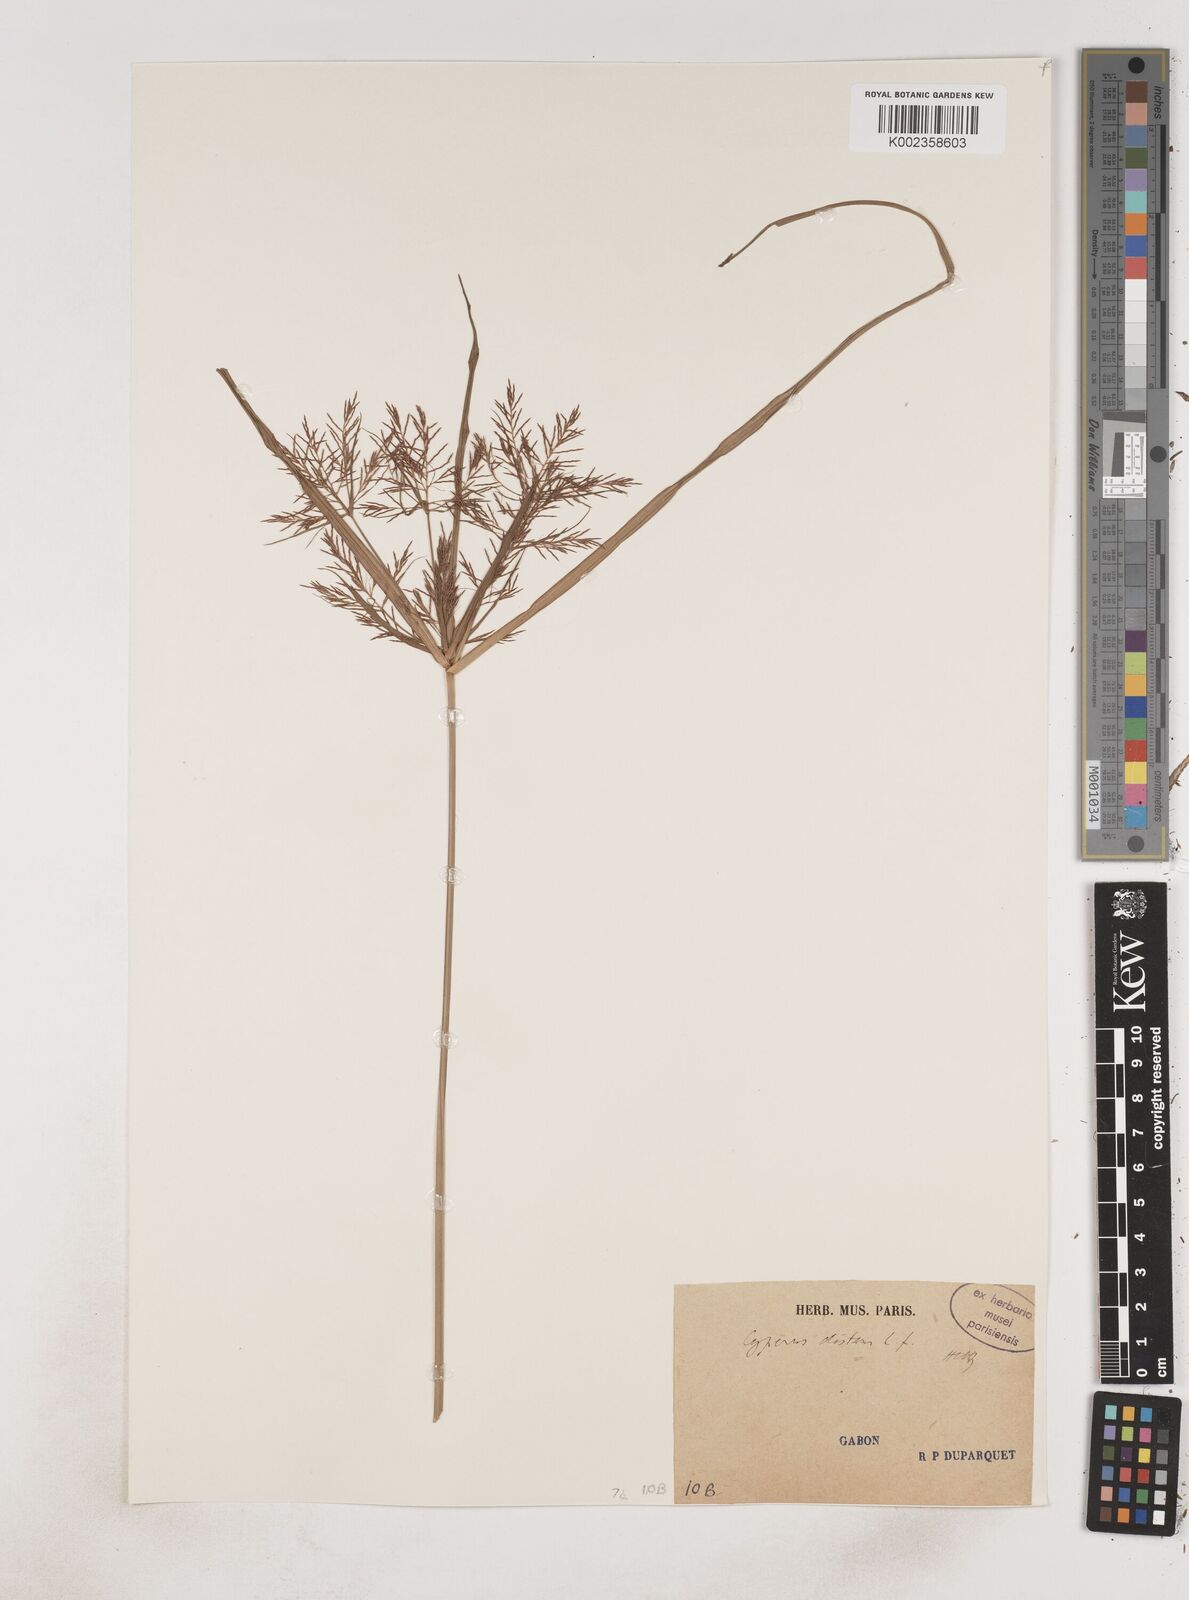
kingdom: Plantae
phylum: Tracheophyta
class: Liliopsida
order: Poales
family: Cyperaceae
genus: Cyperus
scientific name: Cyperus distans
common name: Slender cyperus
